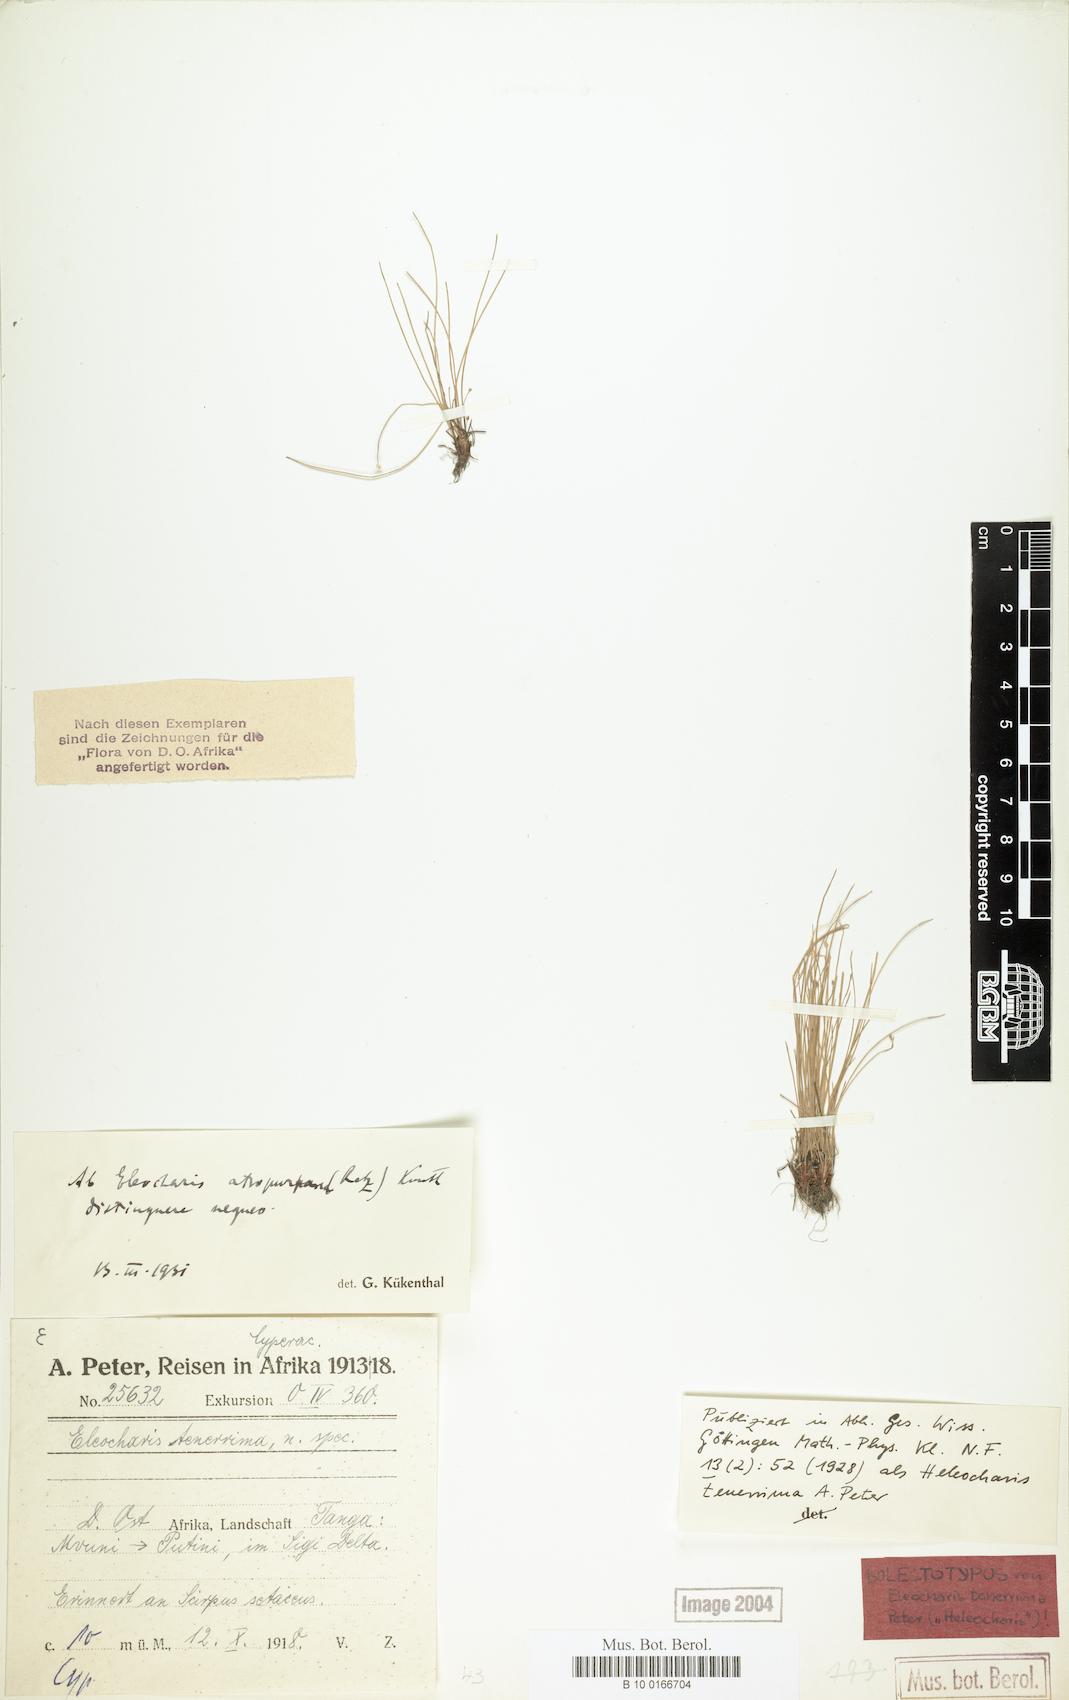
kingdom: Plantae
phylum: Tracheophyta
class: Liliopsida
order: Poales
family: Cyperaceae
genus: Eleocharis
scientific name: Eleocharis atropurpurea
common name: Purple spikerush
